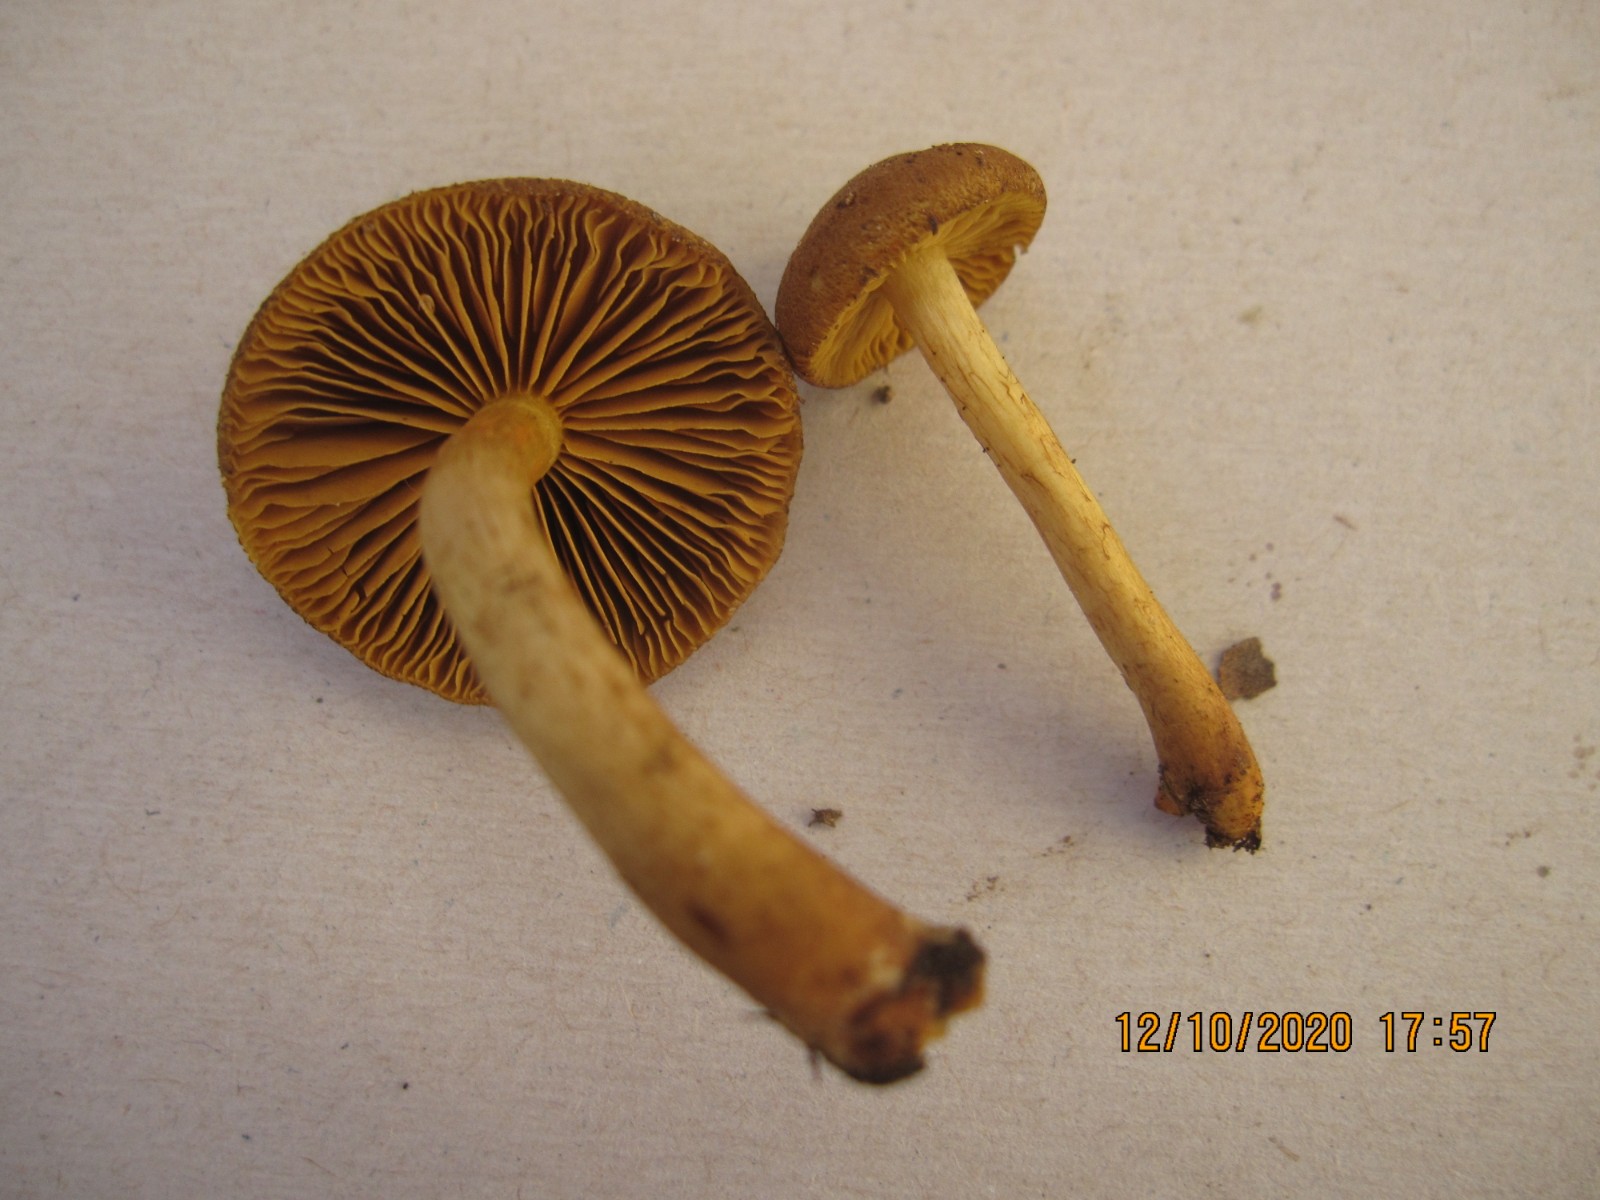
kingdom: Fungi
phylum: Basidiomycota
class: Agaricomycetes
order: Agaricales
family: Cortinariaceae
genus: Cortinarius
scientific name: Cortinarius bataillei
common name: orangefodet slørhat
